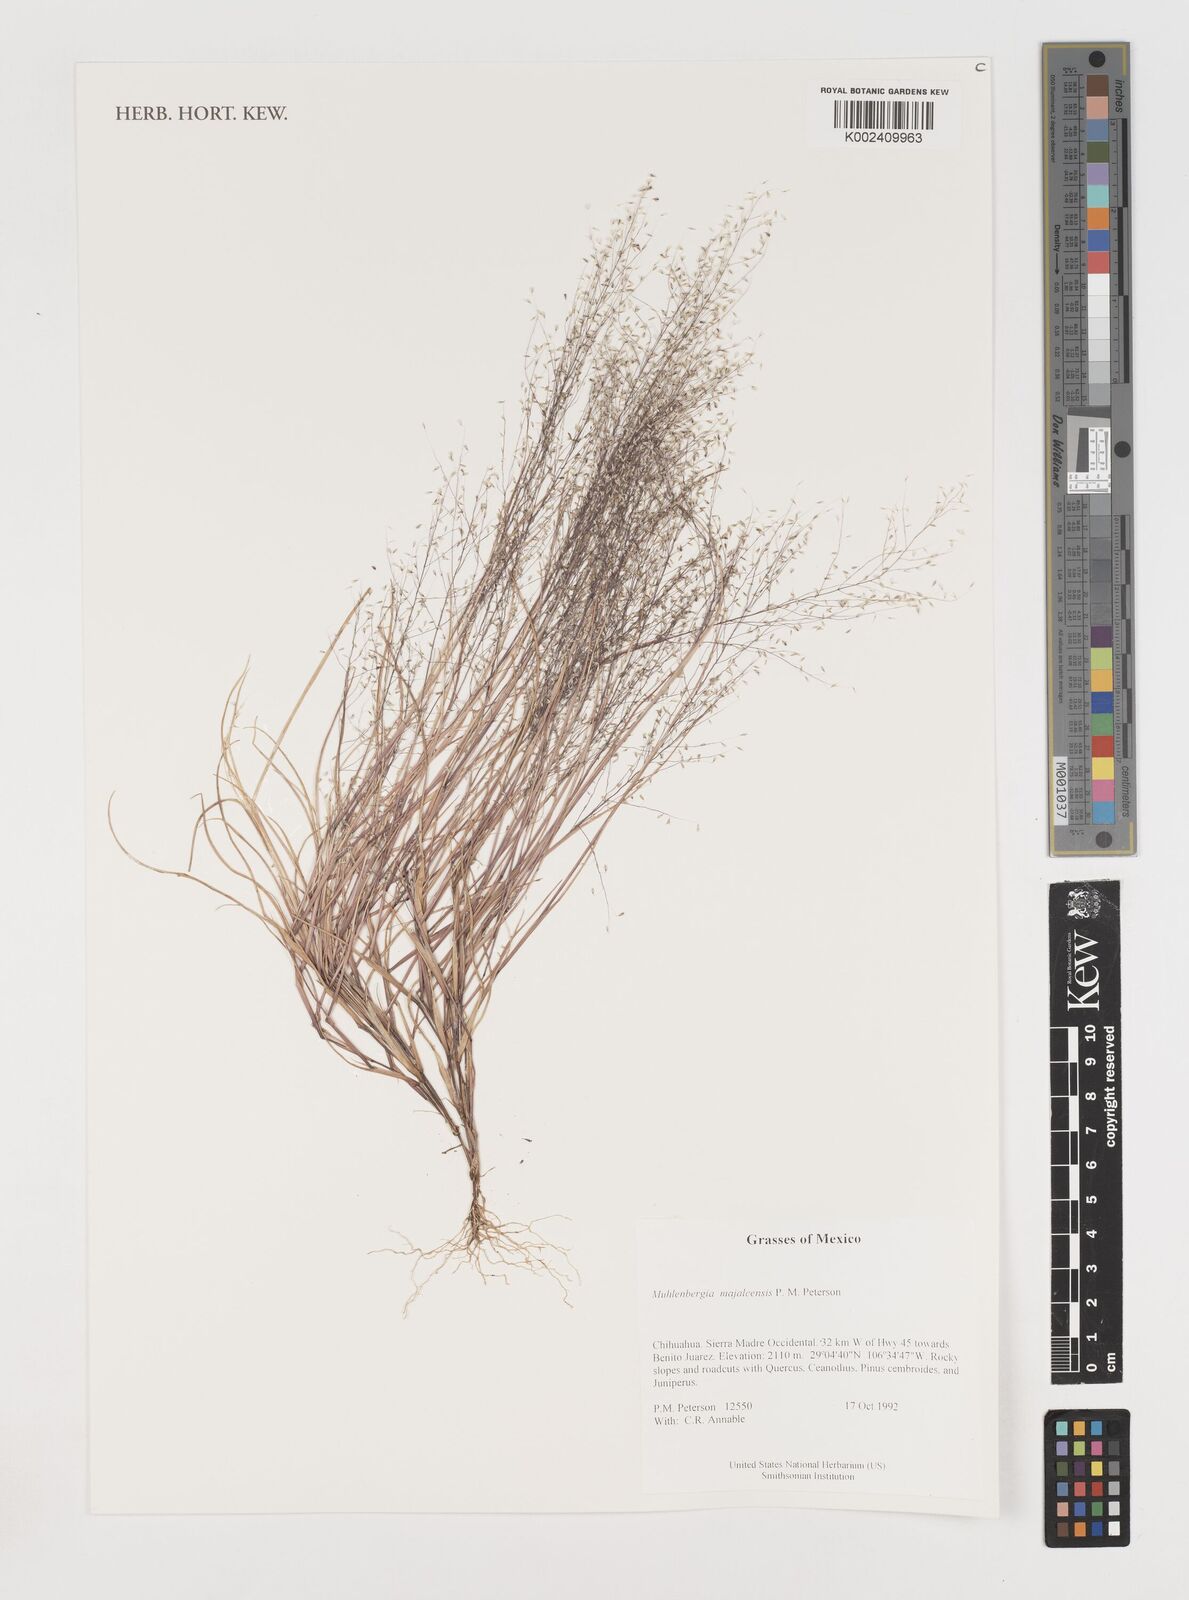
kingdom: Plantae
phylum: Tracheophyta
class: Liliopsida
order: Poales
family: Poaceae
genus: Muhlenbergia
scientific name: Muhlenbergia majalcensis
